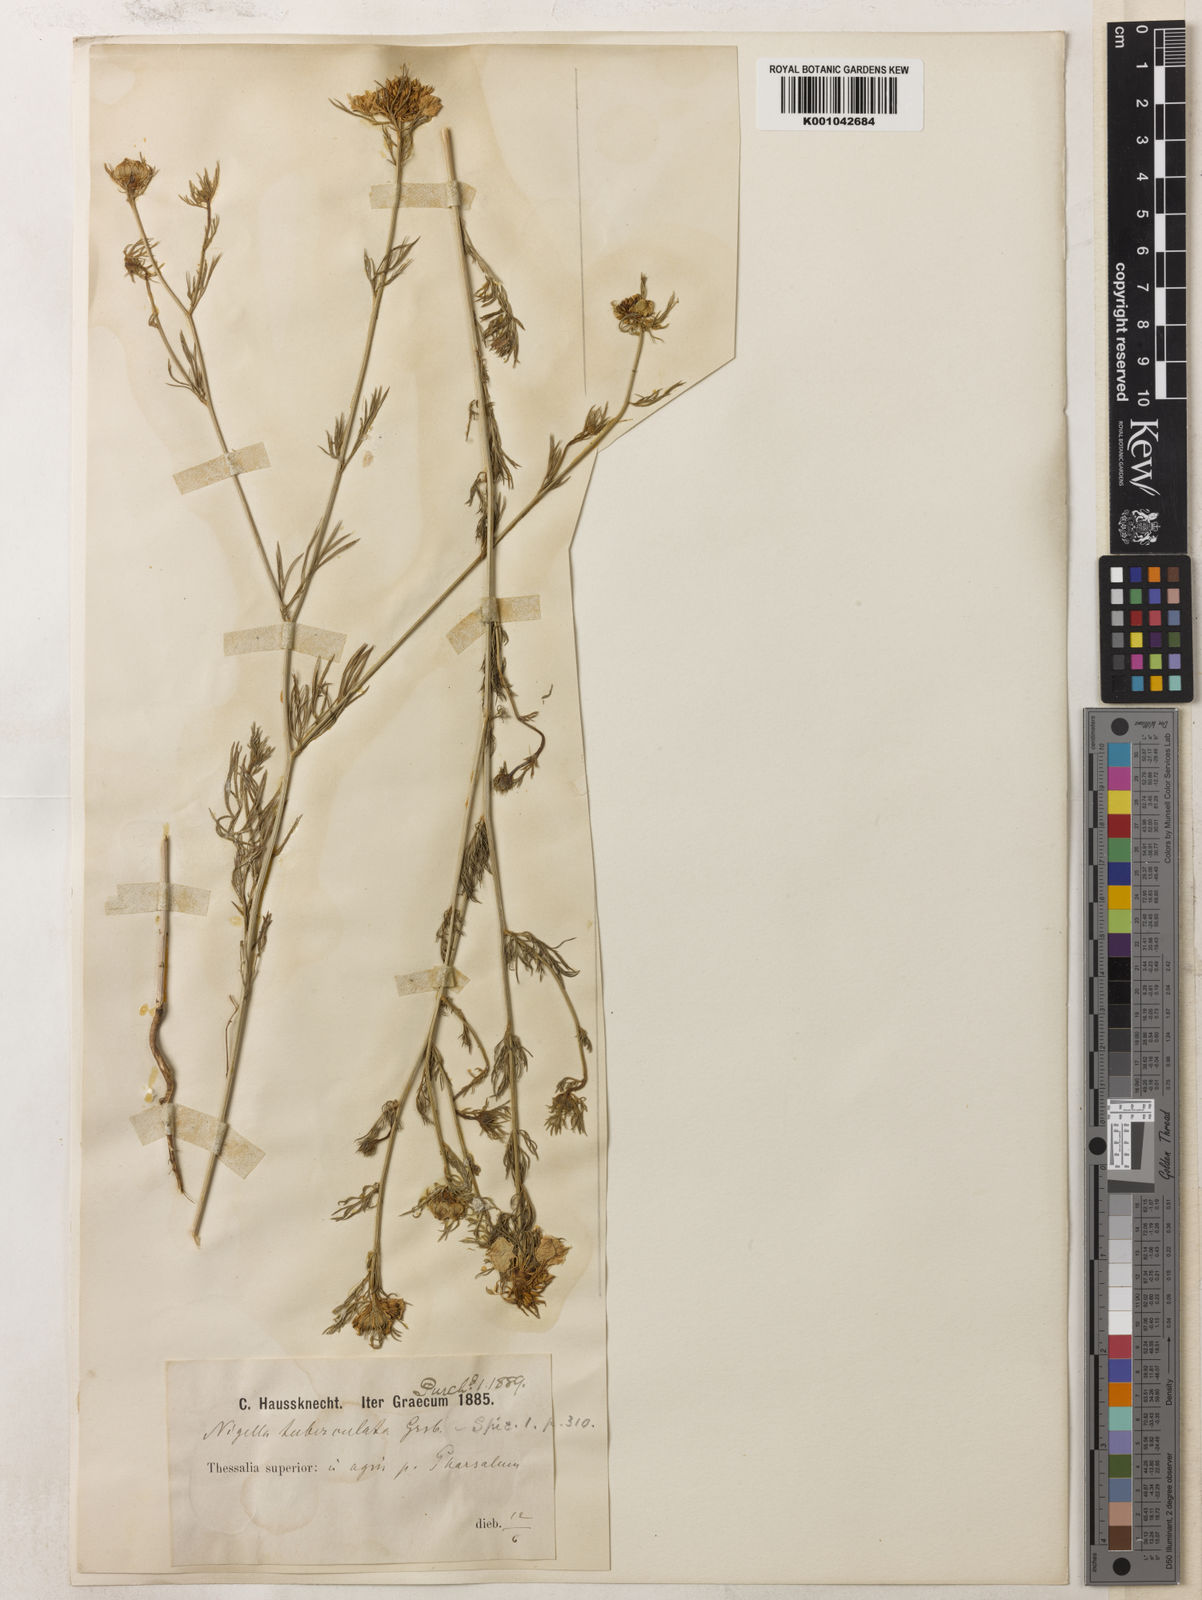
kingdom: Plantae
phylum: Tracheophyta
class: Magnoliopsida
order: Ranunculales
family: Ranunculaceae
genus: Nigella
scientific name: Nigella arvensis
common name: Wild fennel-flower
